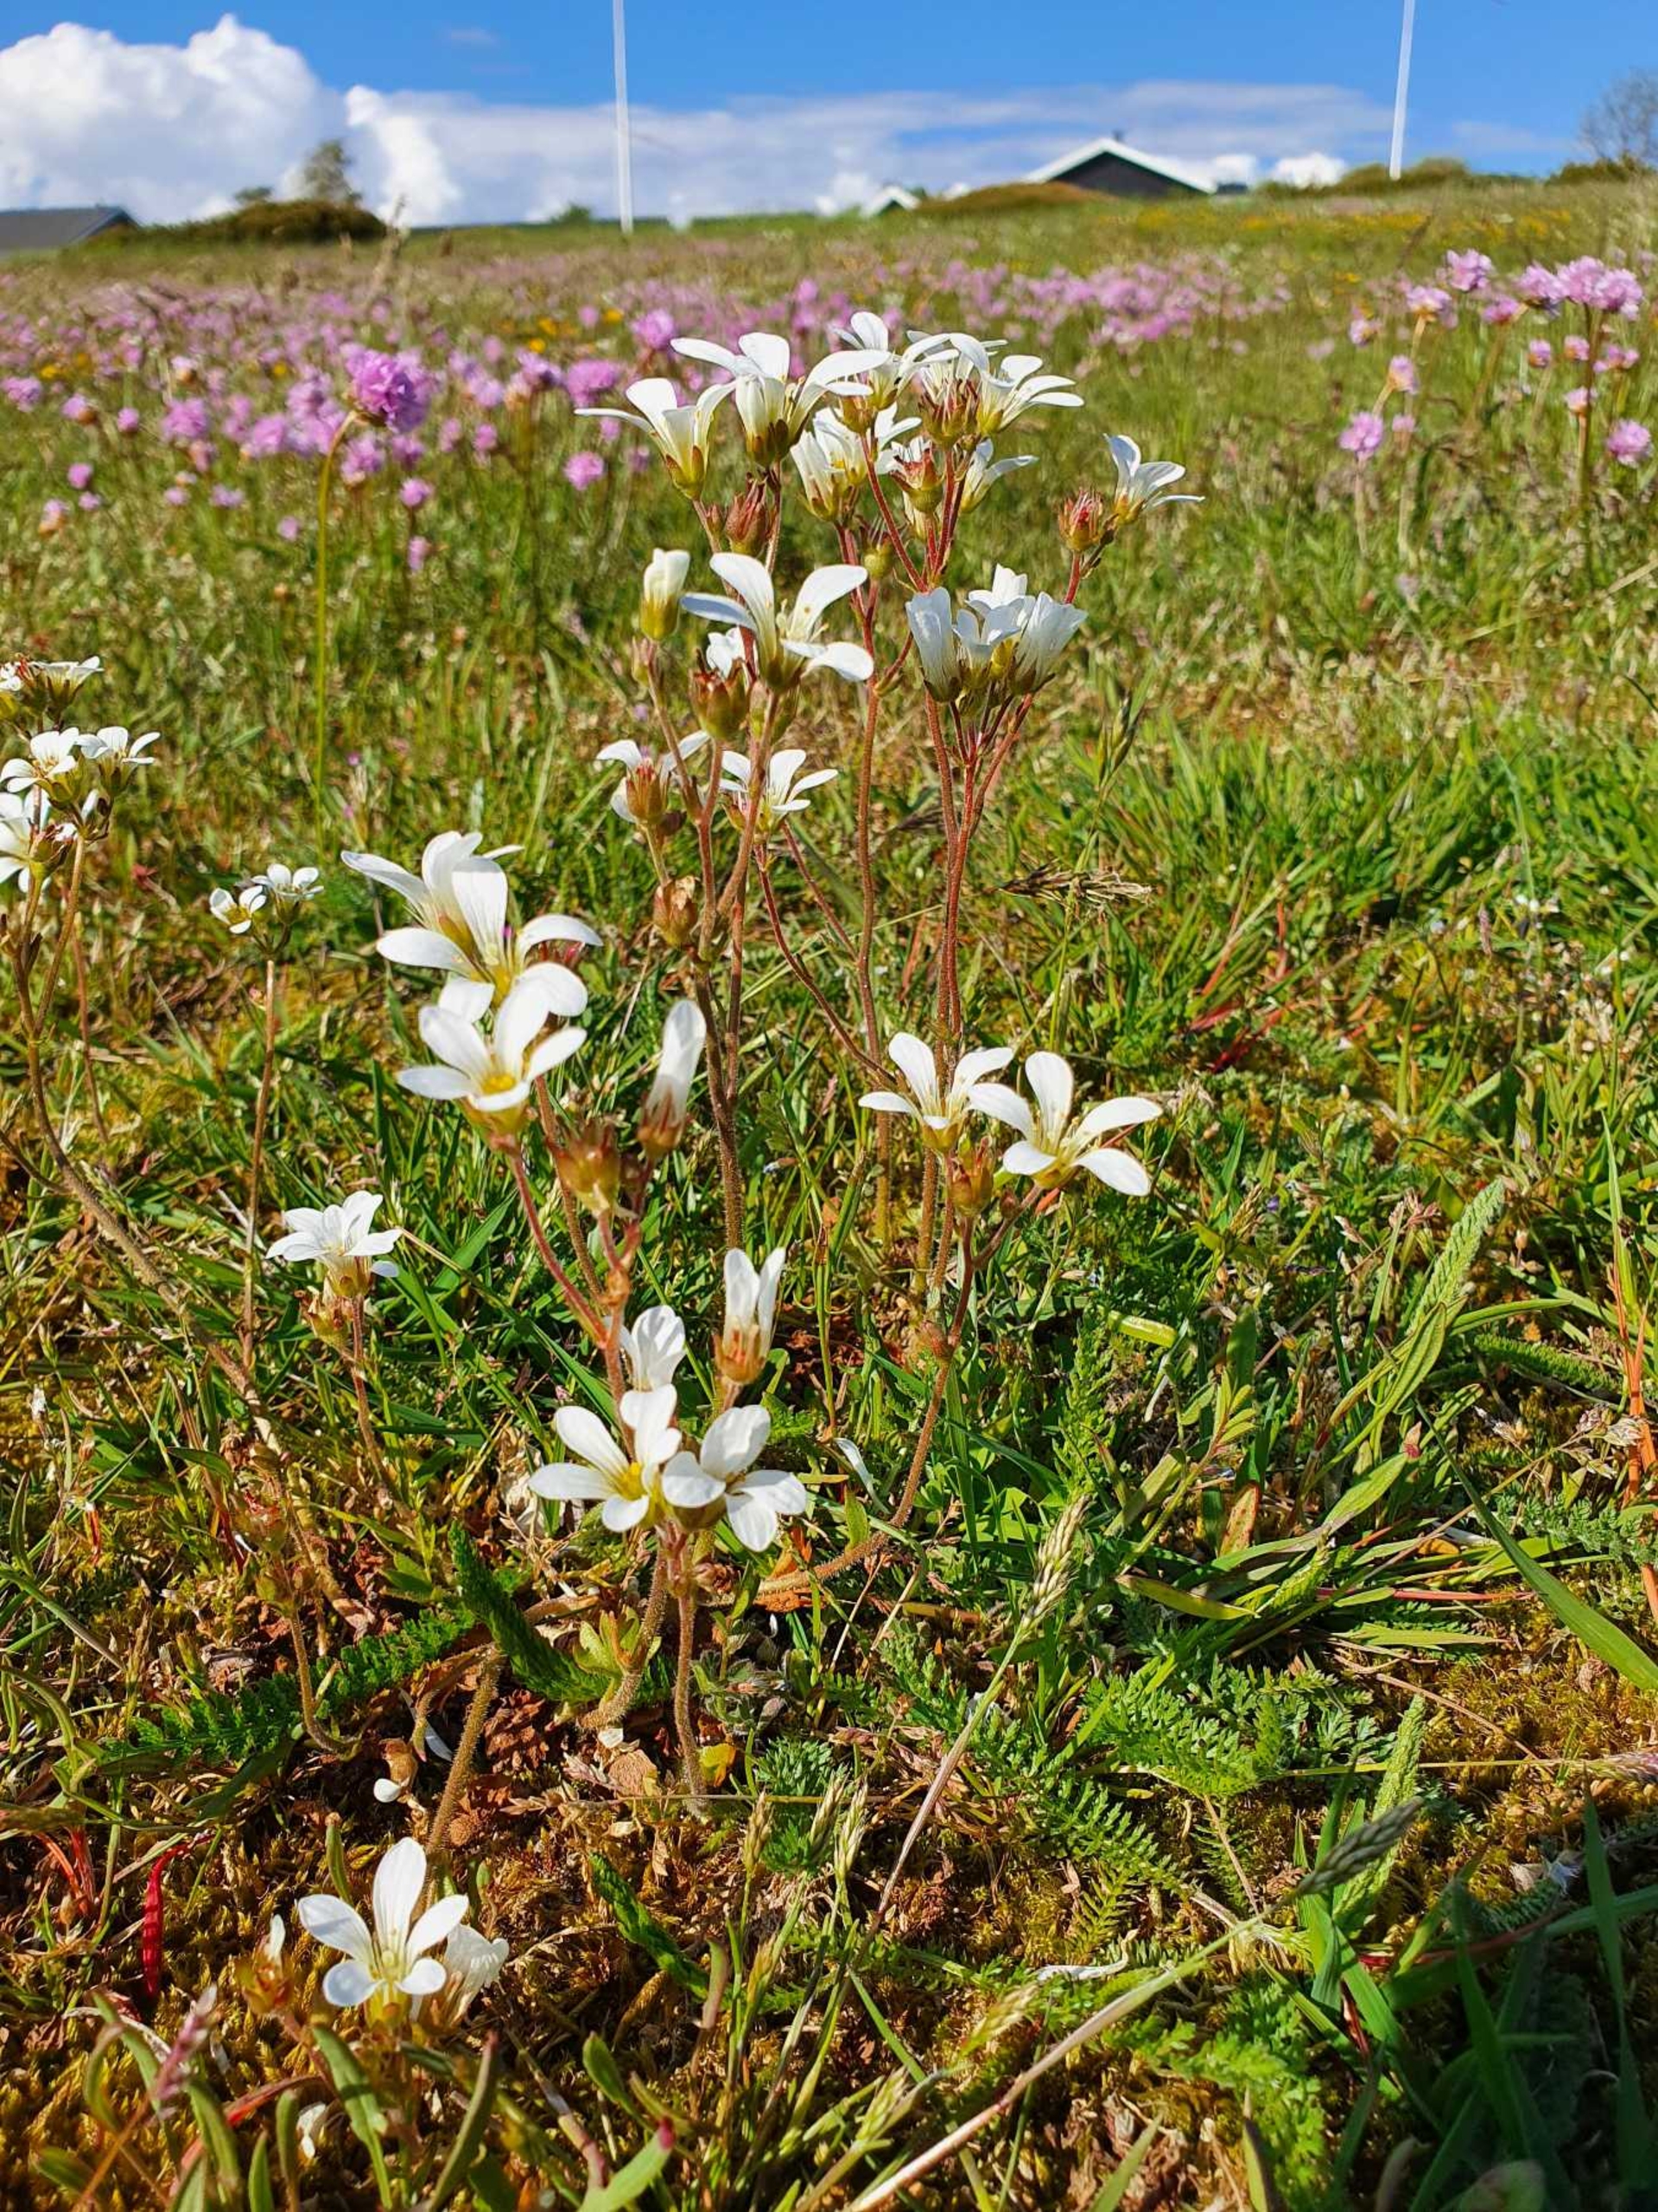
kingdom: Plantae
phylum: Tracheophyta
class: Magnoliopsida
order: Saxifragales
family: Saxifragaceae
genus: Saxifraga
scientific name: Saxifraga granulata
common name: Kornet stenbræk
